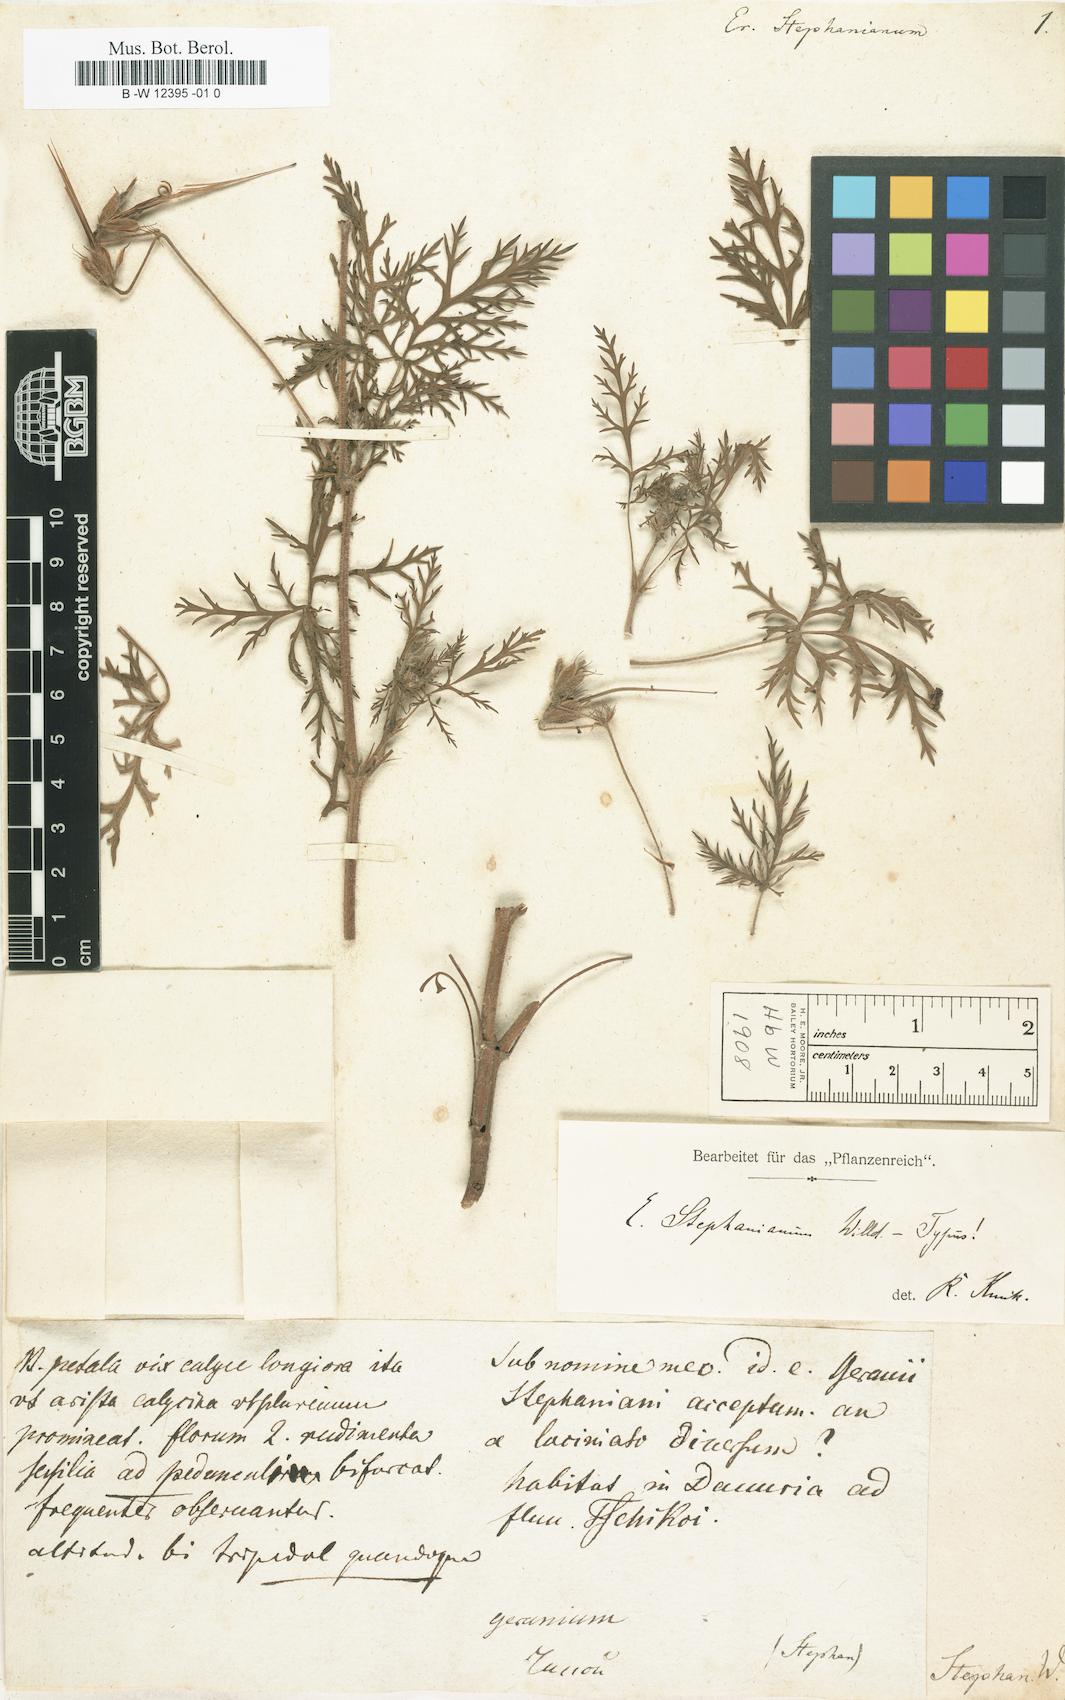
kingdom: Plantae
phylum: Tracheophyta
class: Magnoliopsida
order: Geraniales
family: Geraniaceae
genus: Erodium
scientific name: Erodium stephanianum
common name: Stephen's stork's bill
